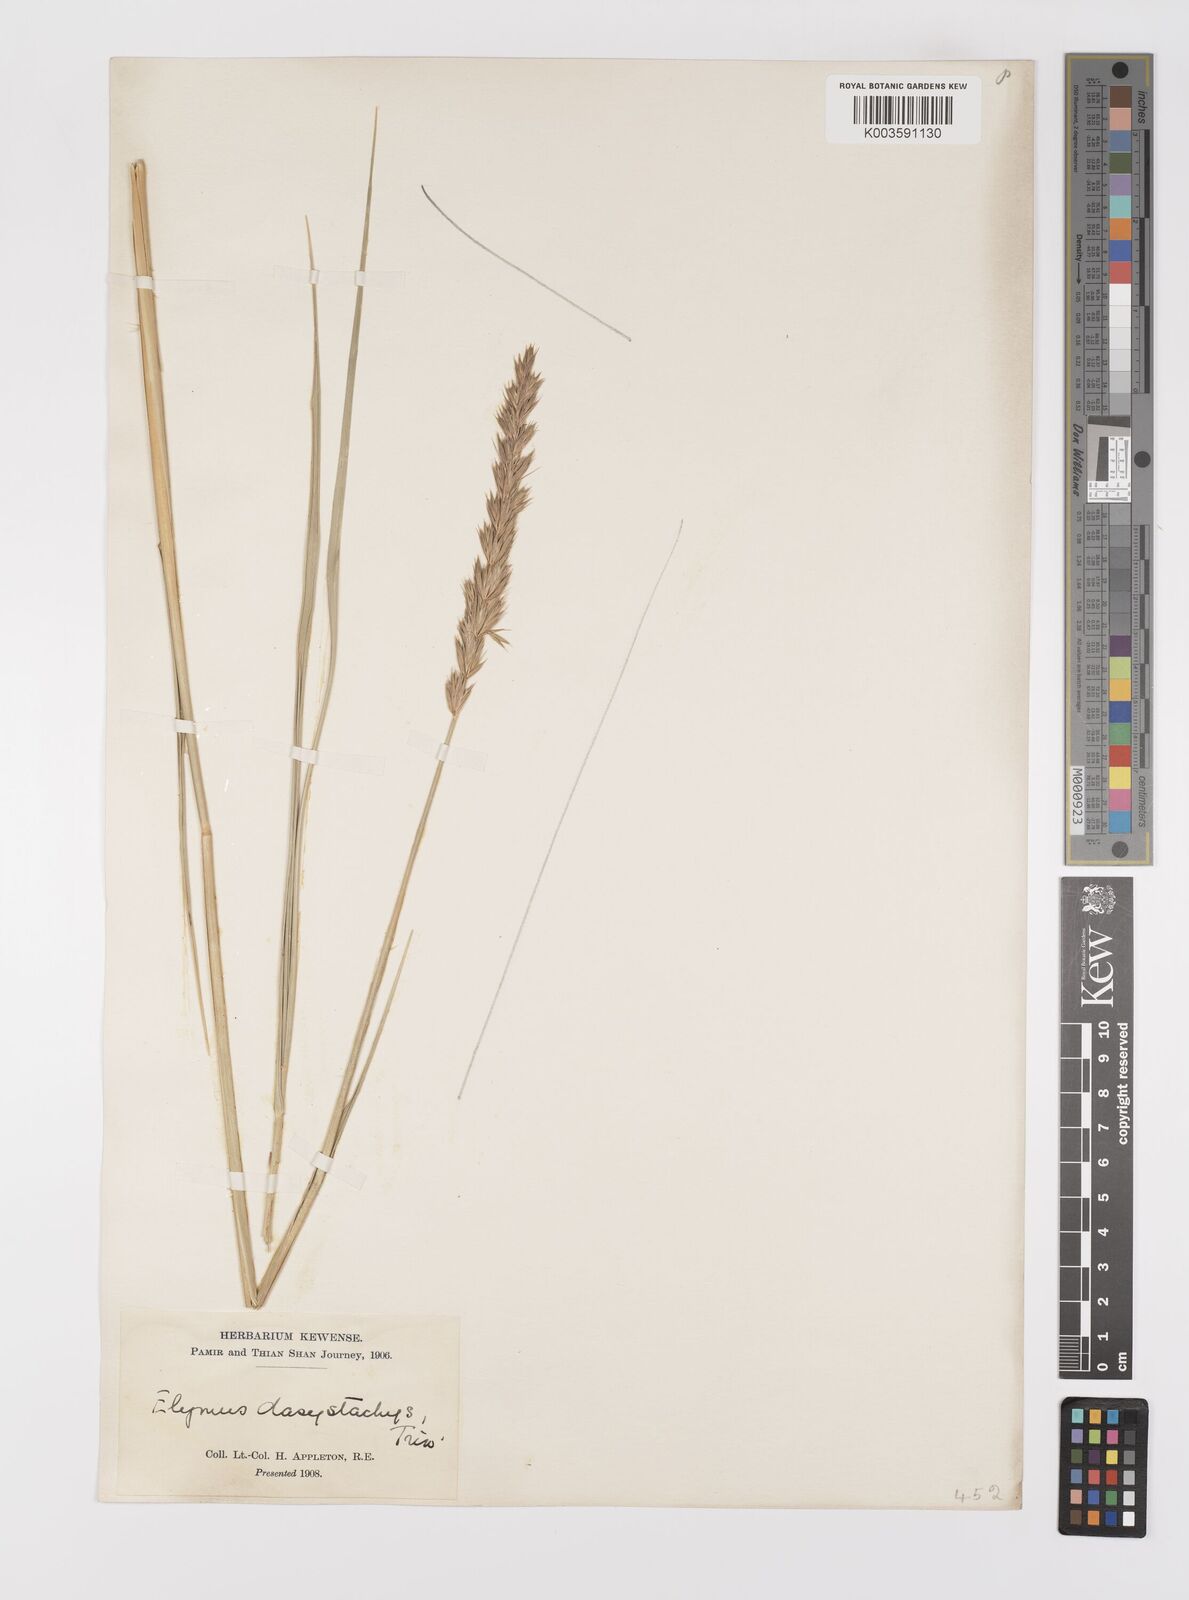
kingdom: Plantae
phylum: Tracheophyta
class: Liliopsida
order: Poales
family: Poaceae
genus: Leymus
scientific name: Leymus secalinus
